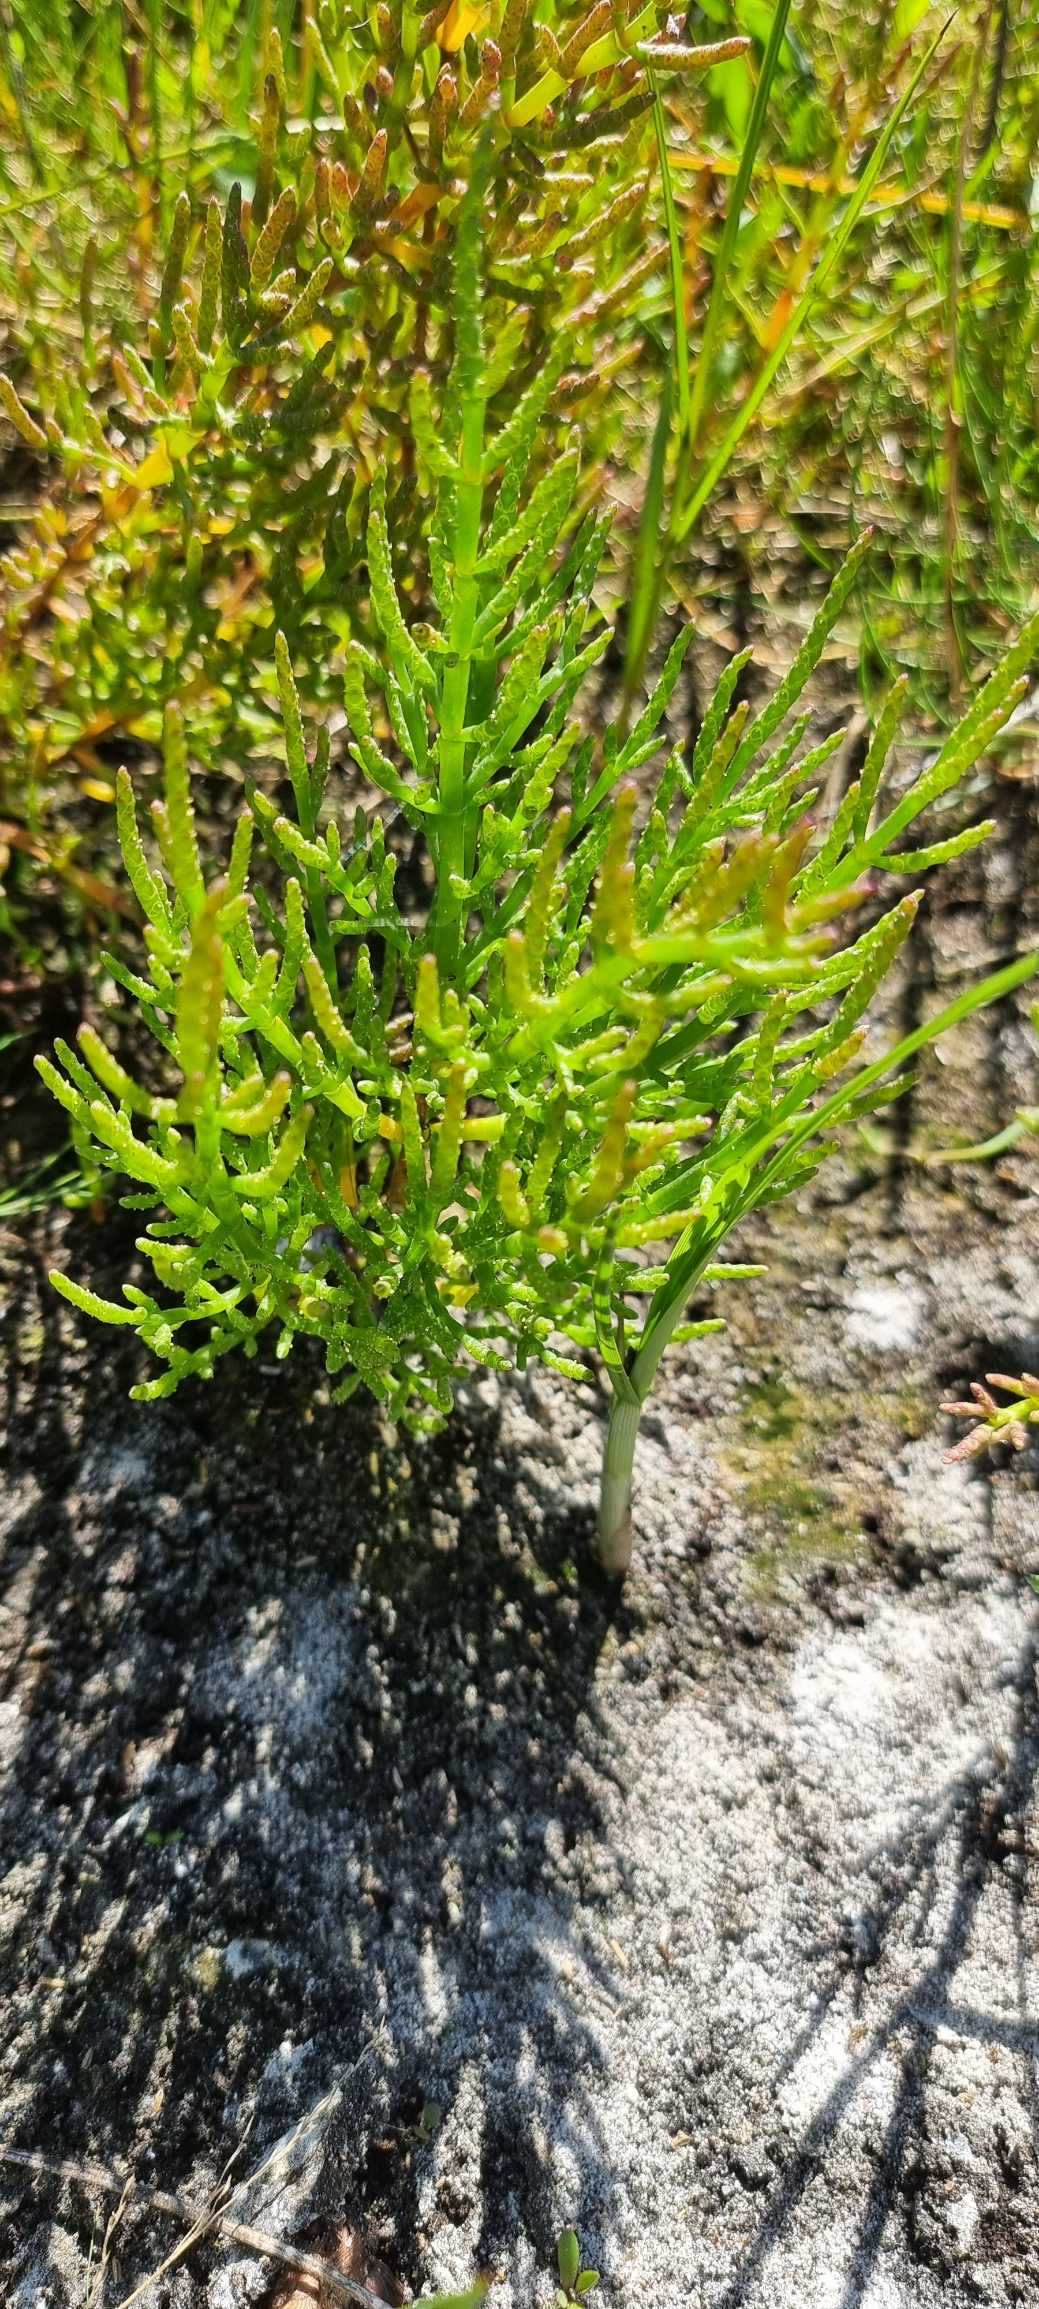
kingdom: Plantae
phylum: Tracheophyta
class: Magnoliopsida
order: Caryophyllales
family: Amaranthaceae
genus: Salicornia
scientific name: Salicornia europaea
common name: Almindelig salturt
